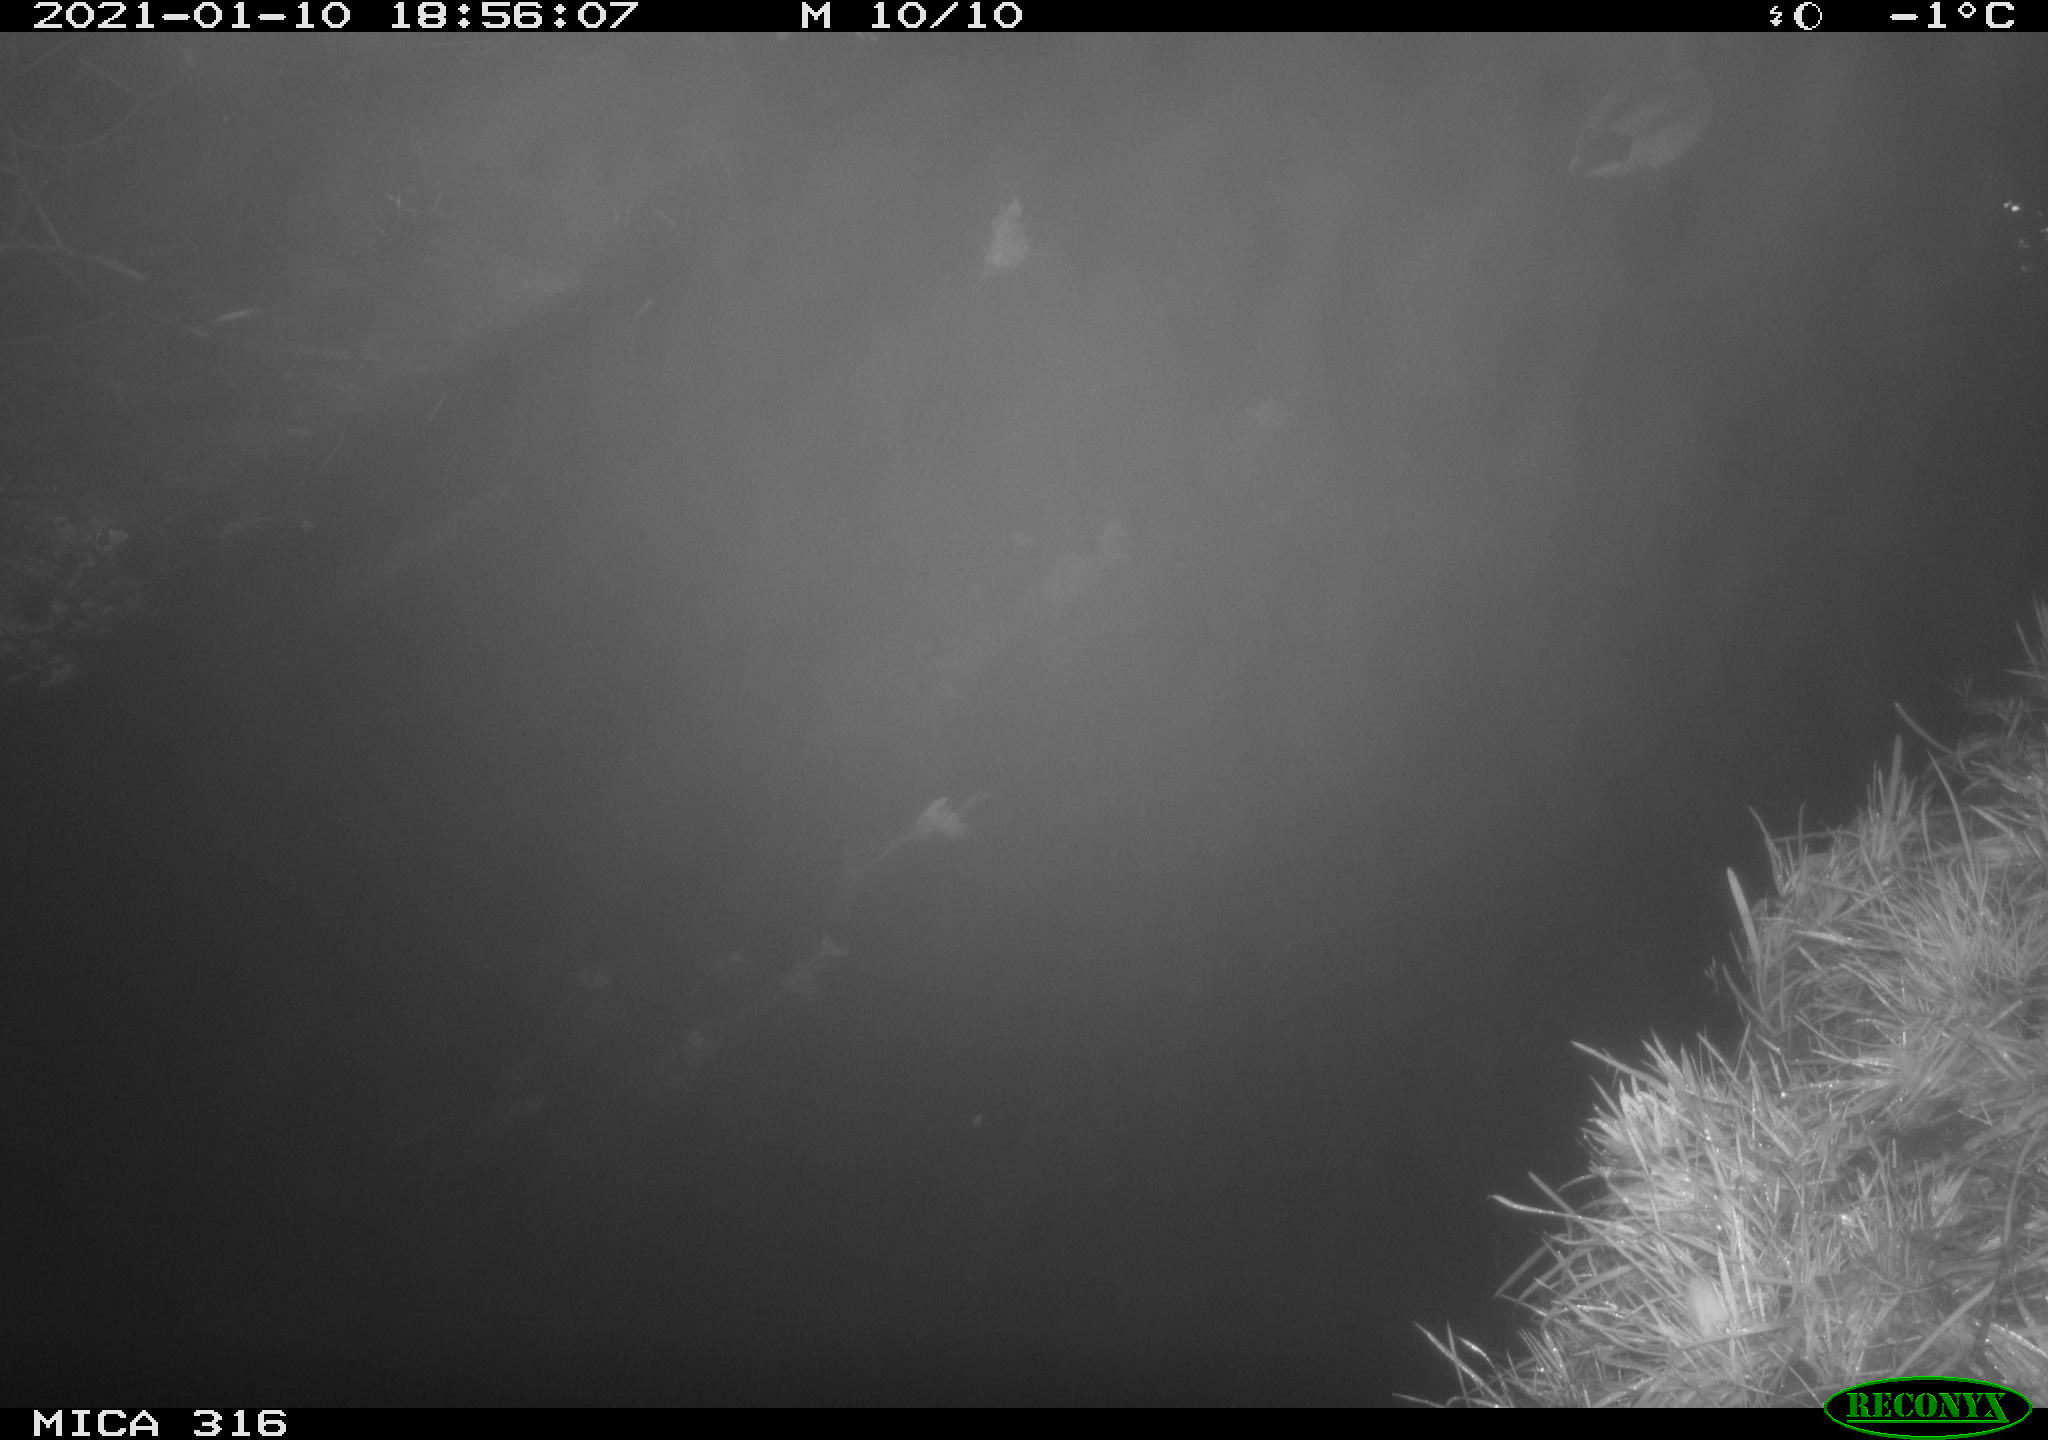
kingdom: Animalia
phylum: Chordata
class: Aves
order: Anseriformes
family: Anatidae
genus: Anas
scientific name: Anas platyrhynchos
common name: Mallard
